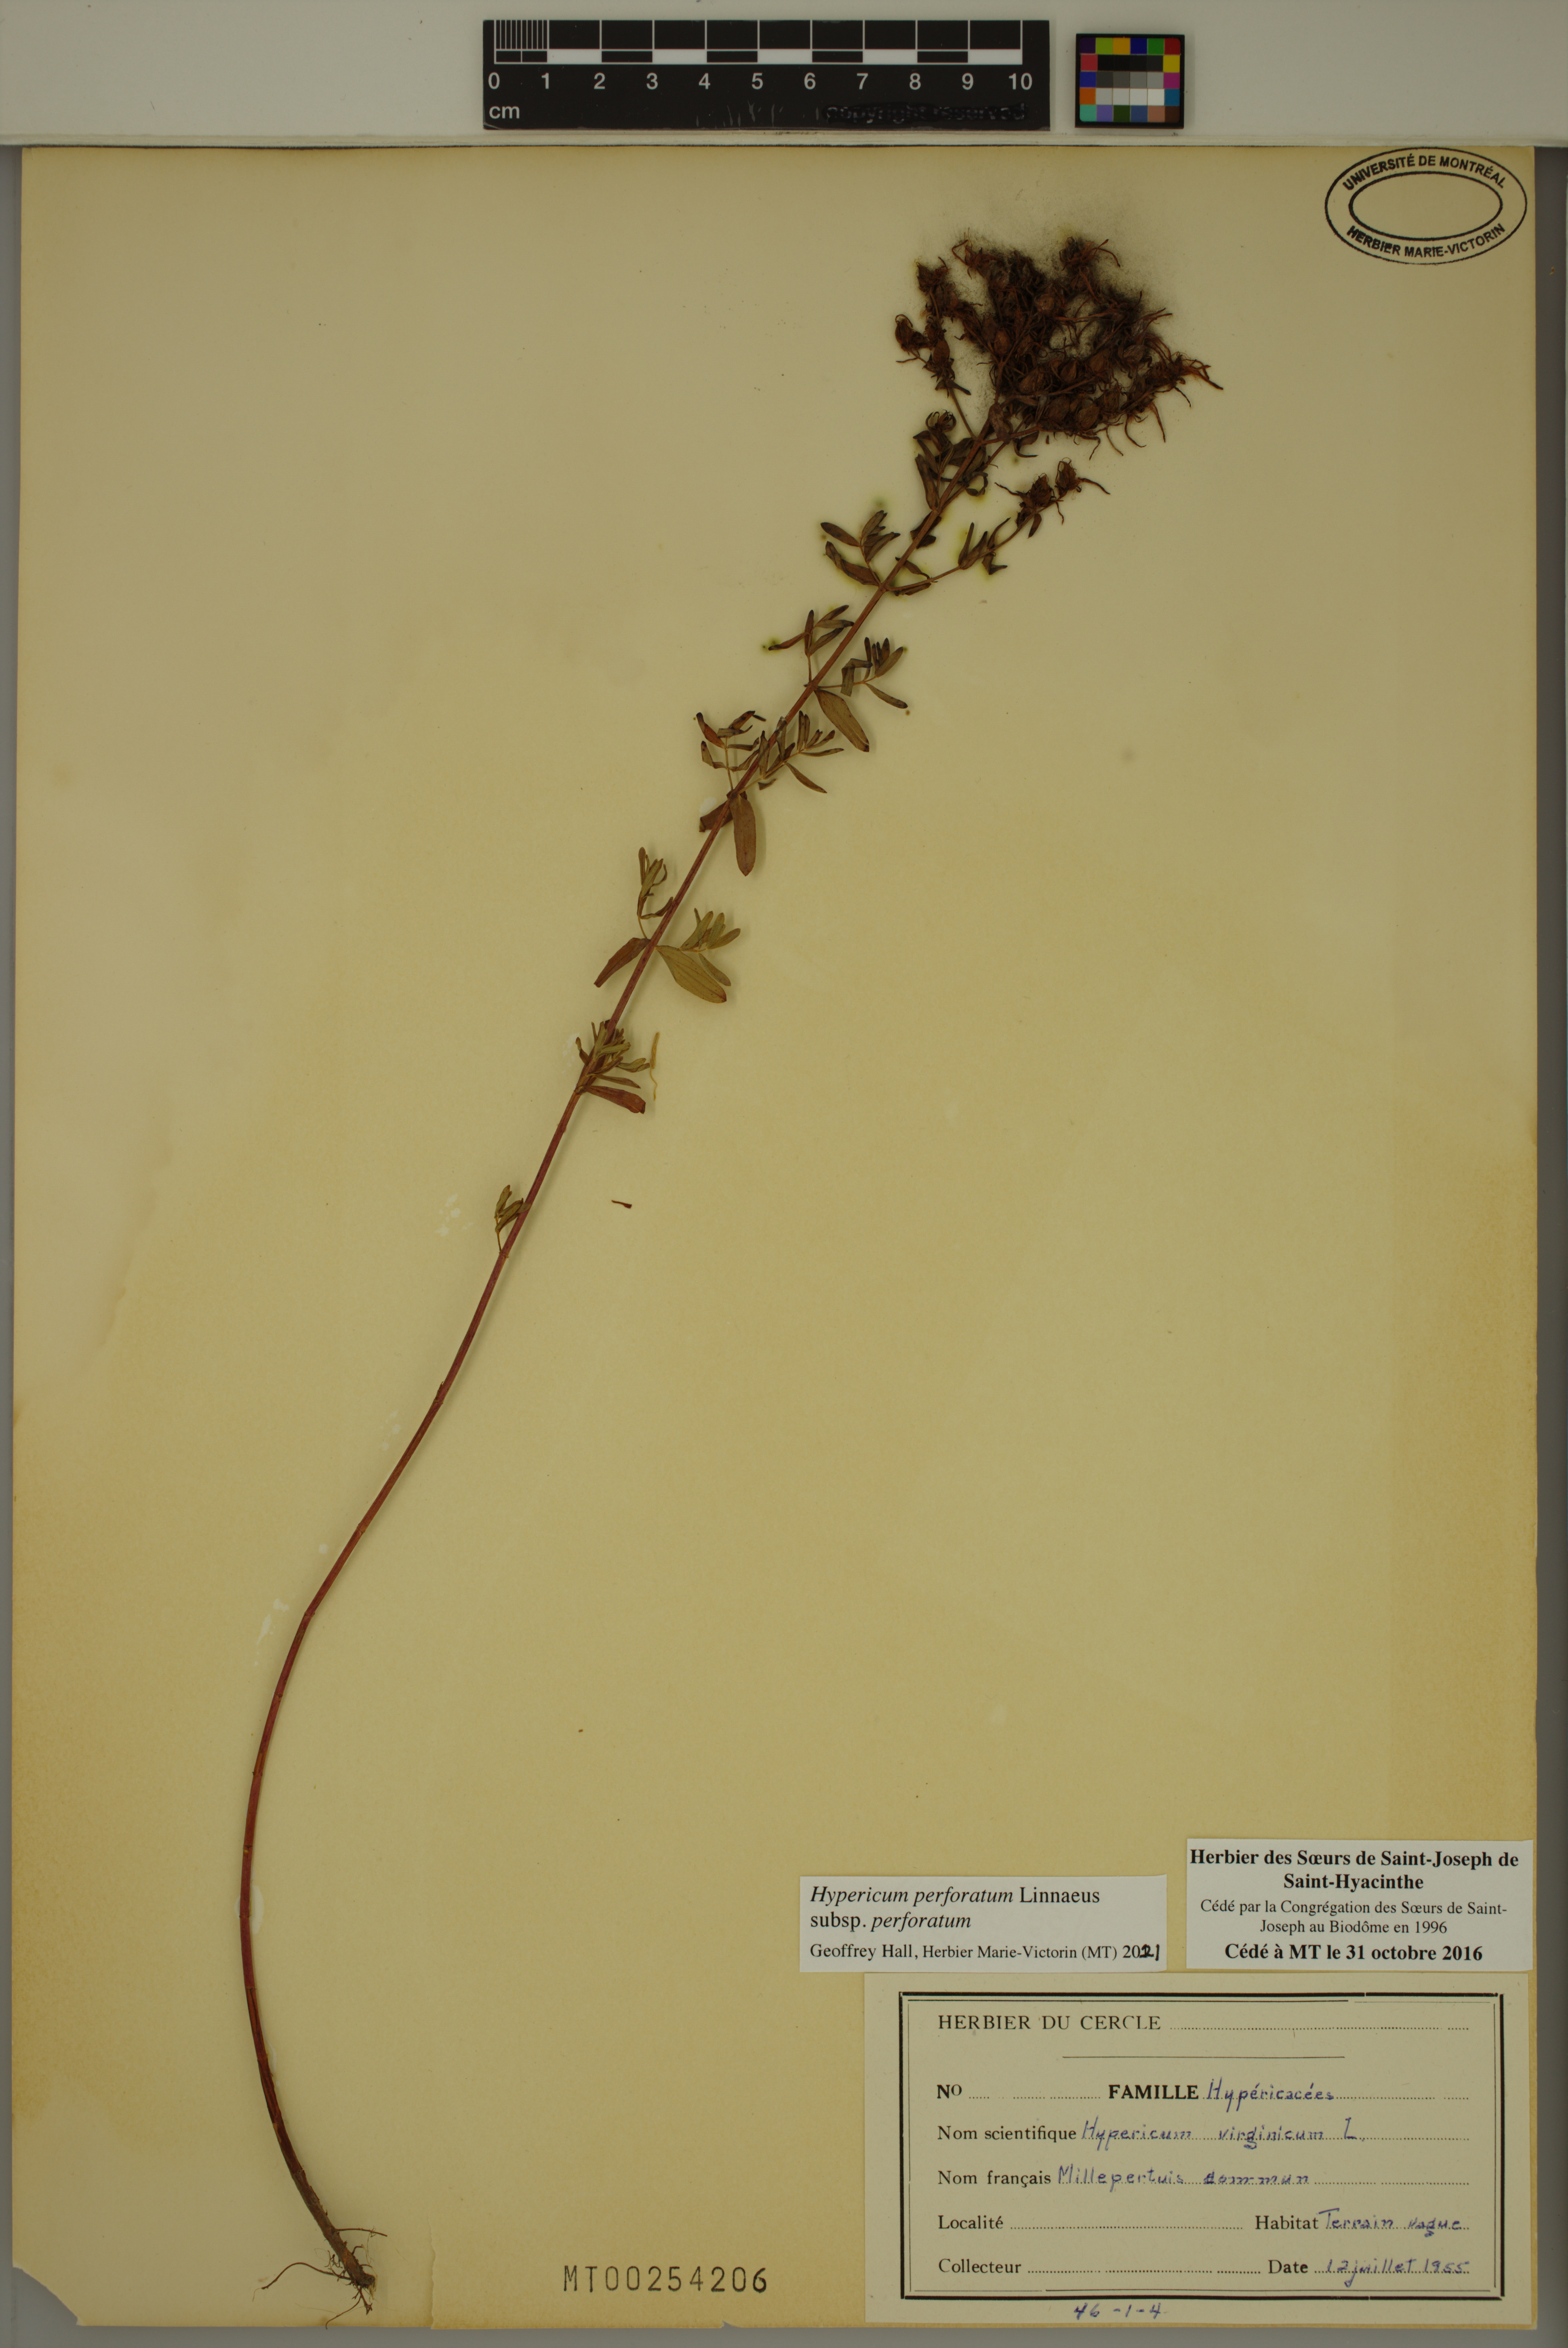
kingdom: Plantae
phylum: Tracheophyta
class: Magnoliopsida
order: Malpighiales
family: Hypericaceae
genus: Hypericum
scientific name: Hypericum perforatum
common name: Common st. johnswort
